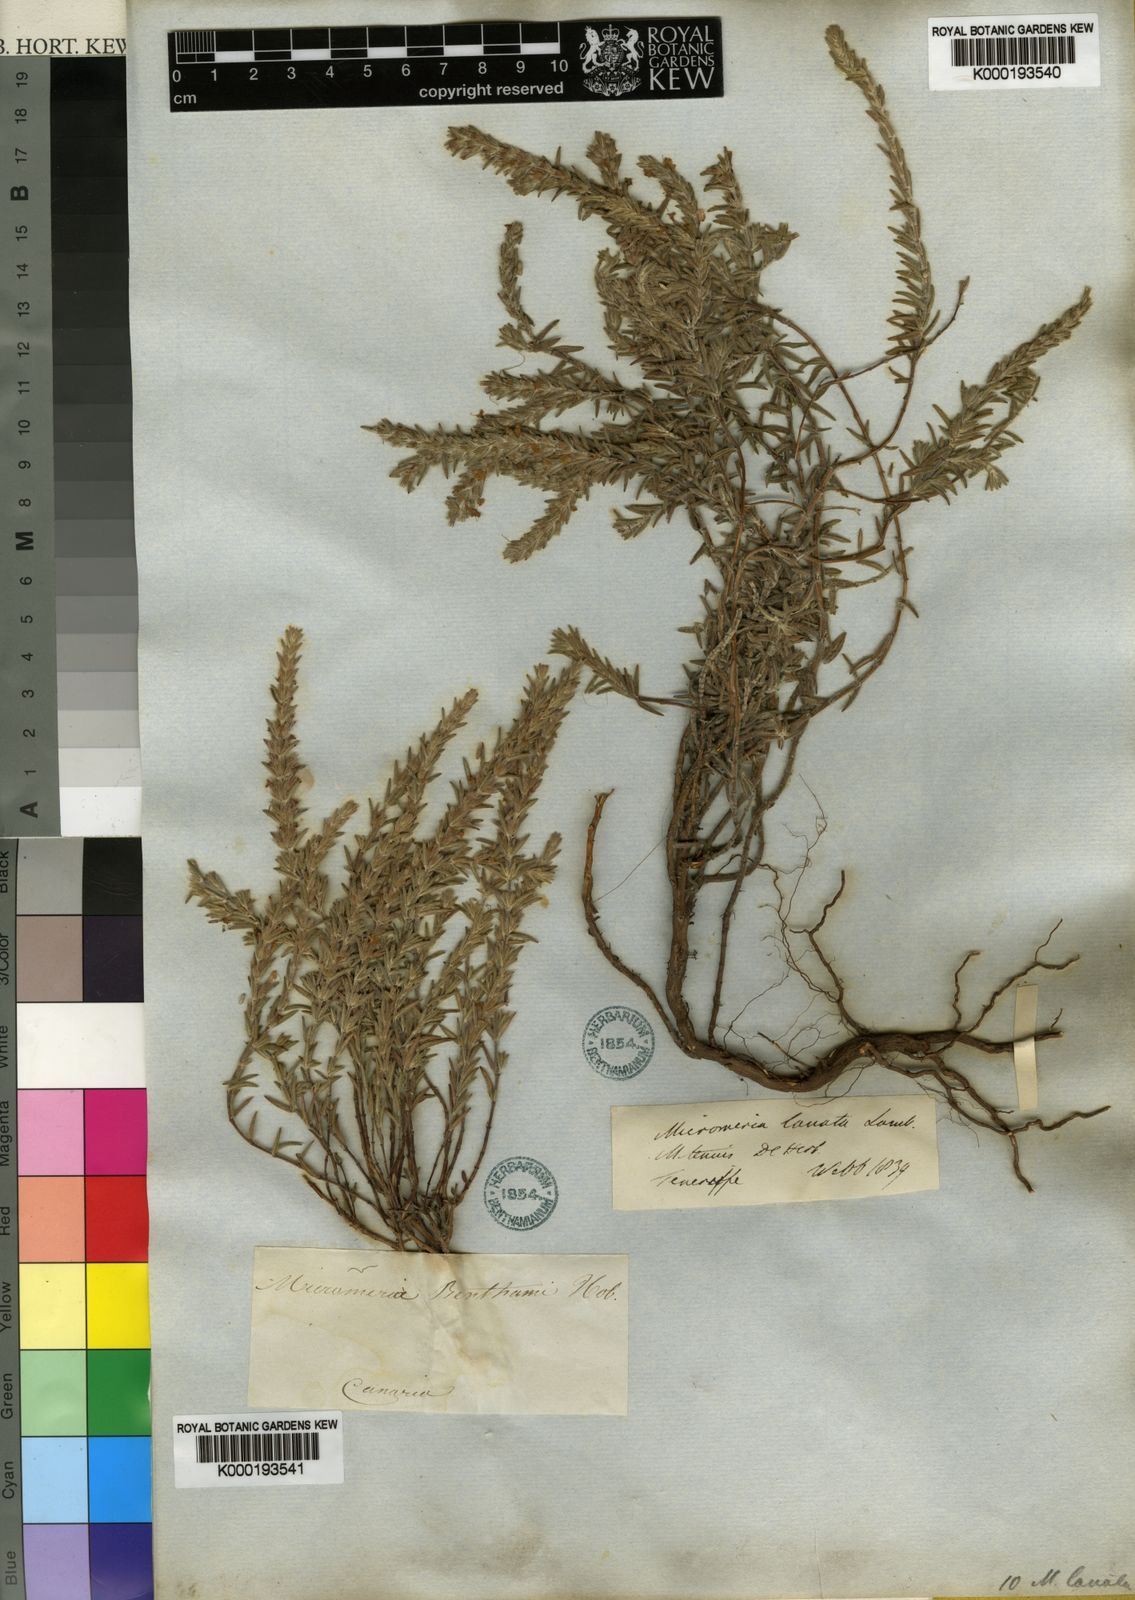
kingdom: Plantae
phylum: Tracheophyta
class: Magnoliopsida
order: Lamiales
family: Lamiaceae
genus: Micromeria
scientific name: Micromeria lanata
